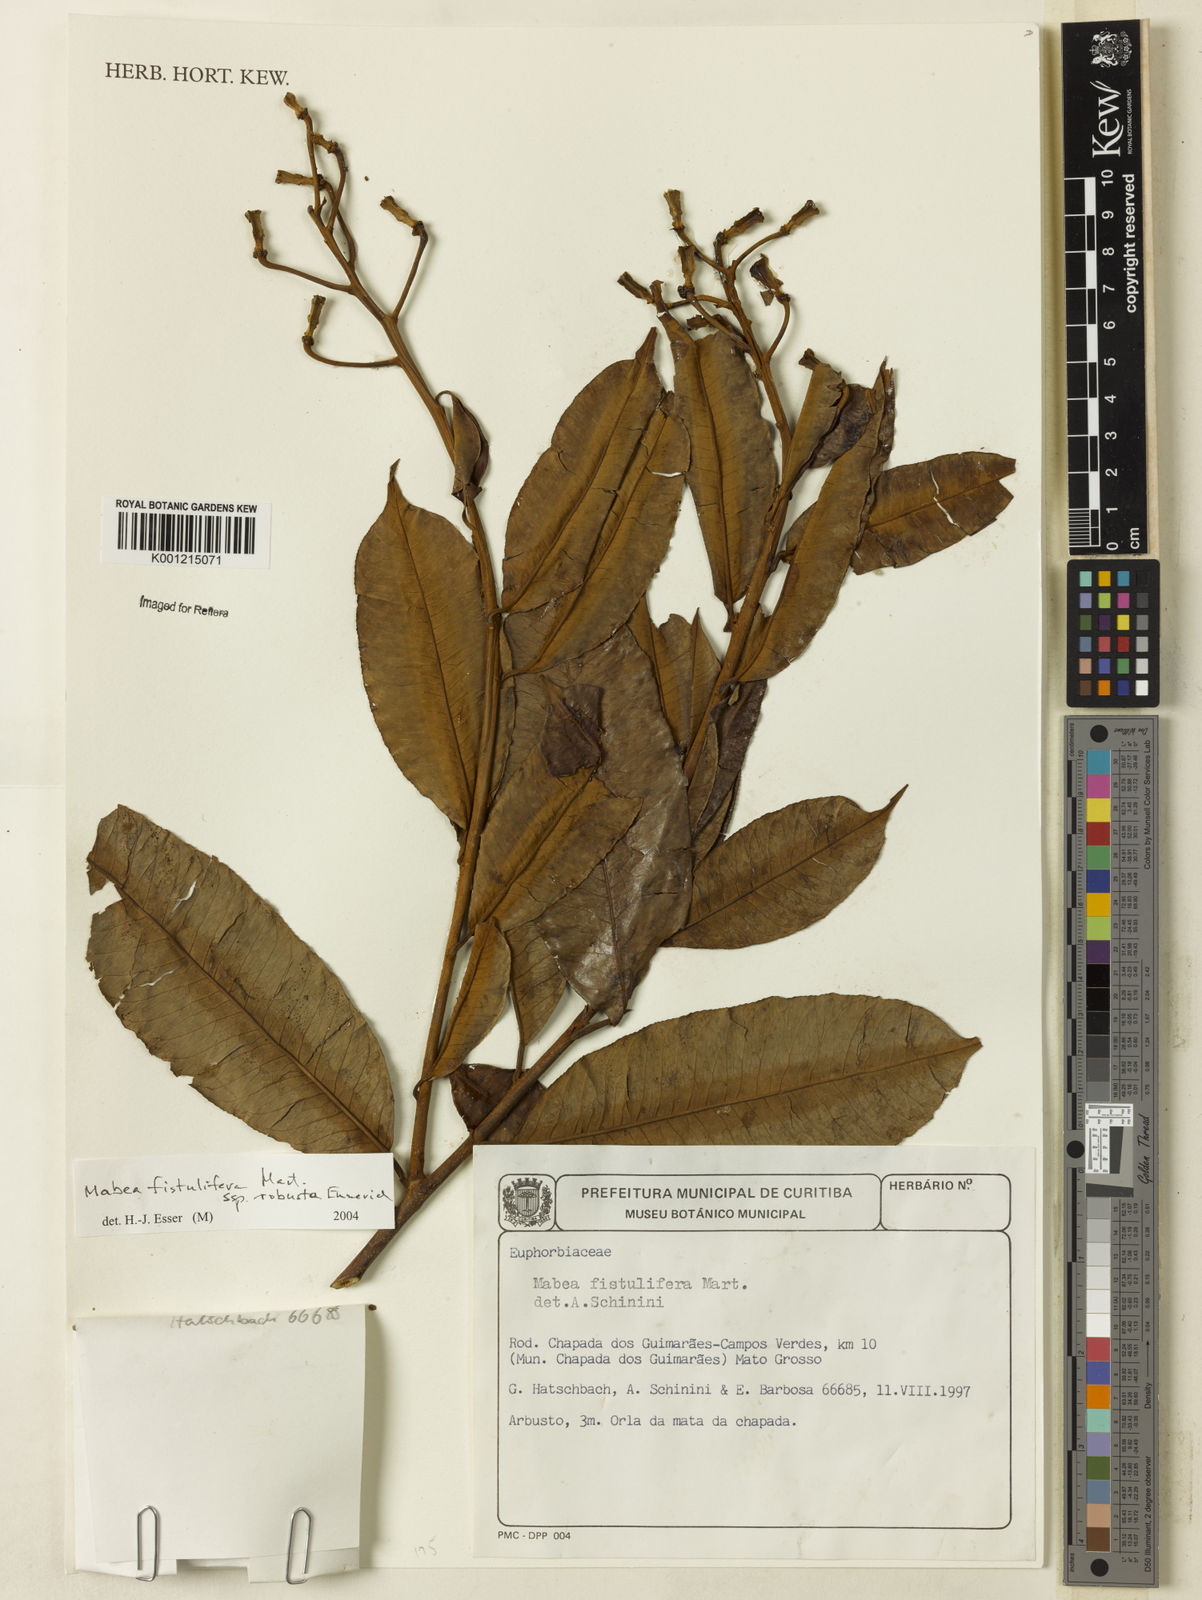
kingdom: Plantae
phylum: Tracheophyta
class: Magnoliopsida
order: Malpighiales
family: Euphorbiaceae
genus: Mabea
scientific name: Mabea fistulifera
